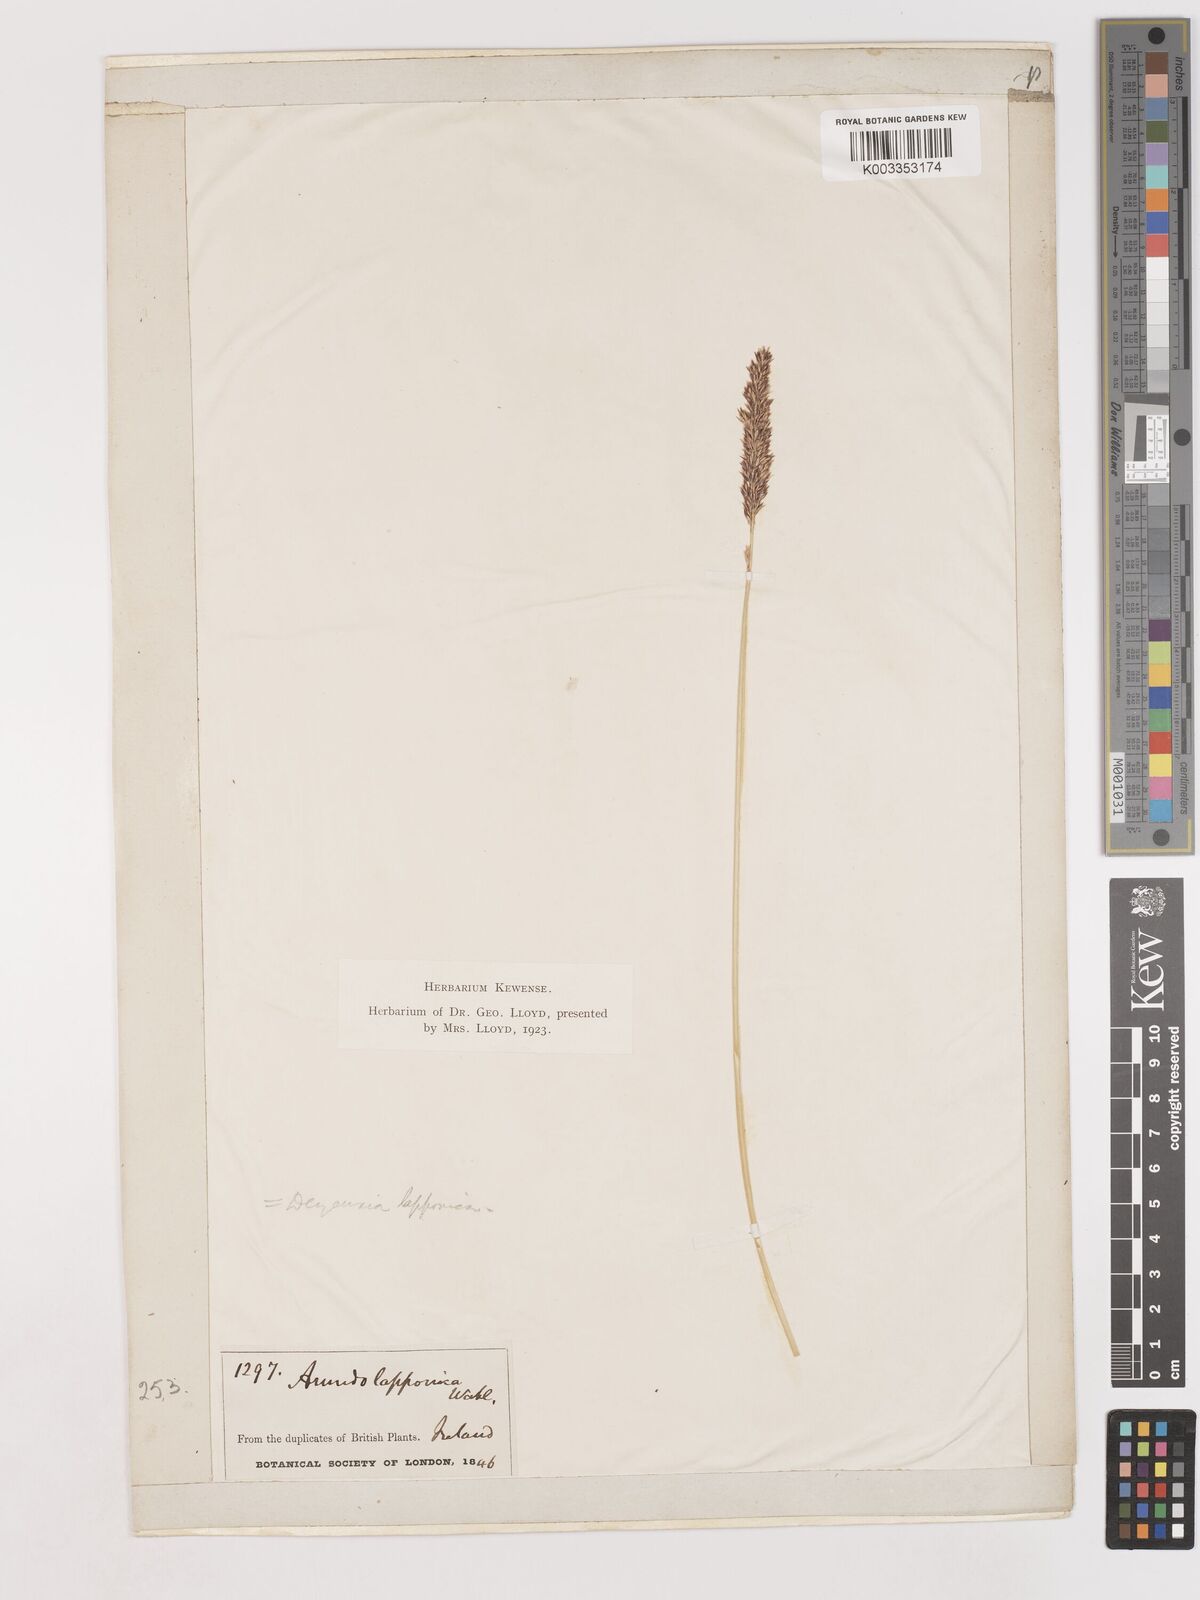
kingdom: Plantae
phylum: Tracheophyta
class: Liliopsida
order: Poales
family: Poaceae
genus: Cinnagrostis
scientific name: Cinnagrostis recta
